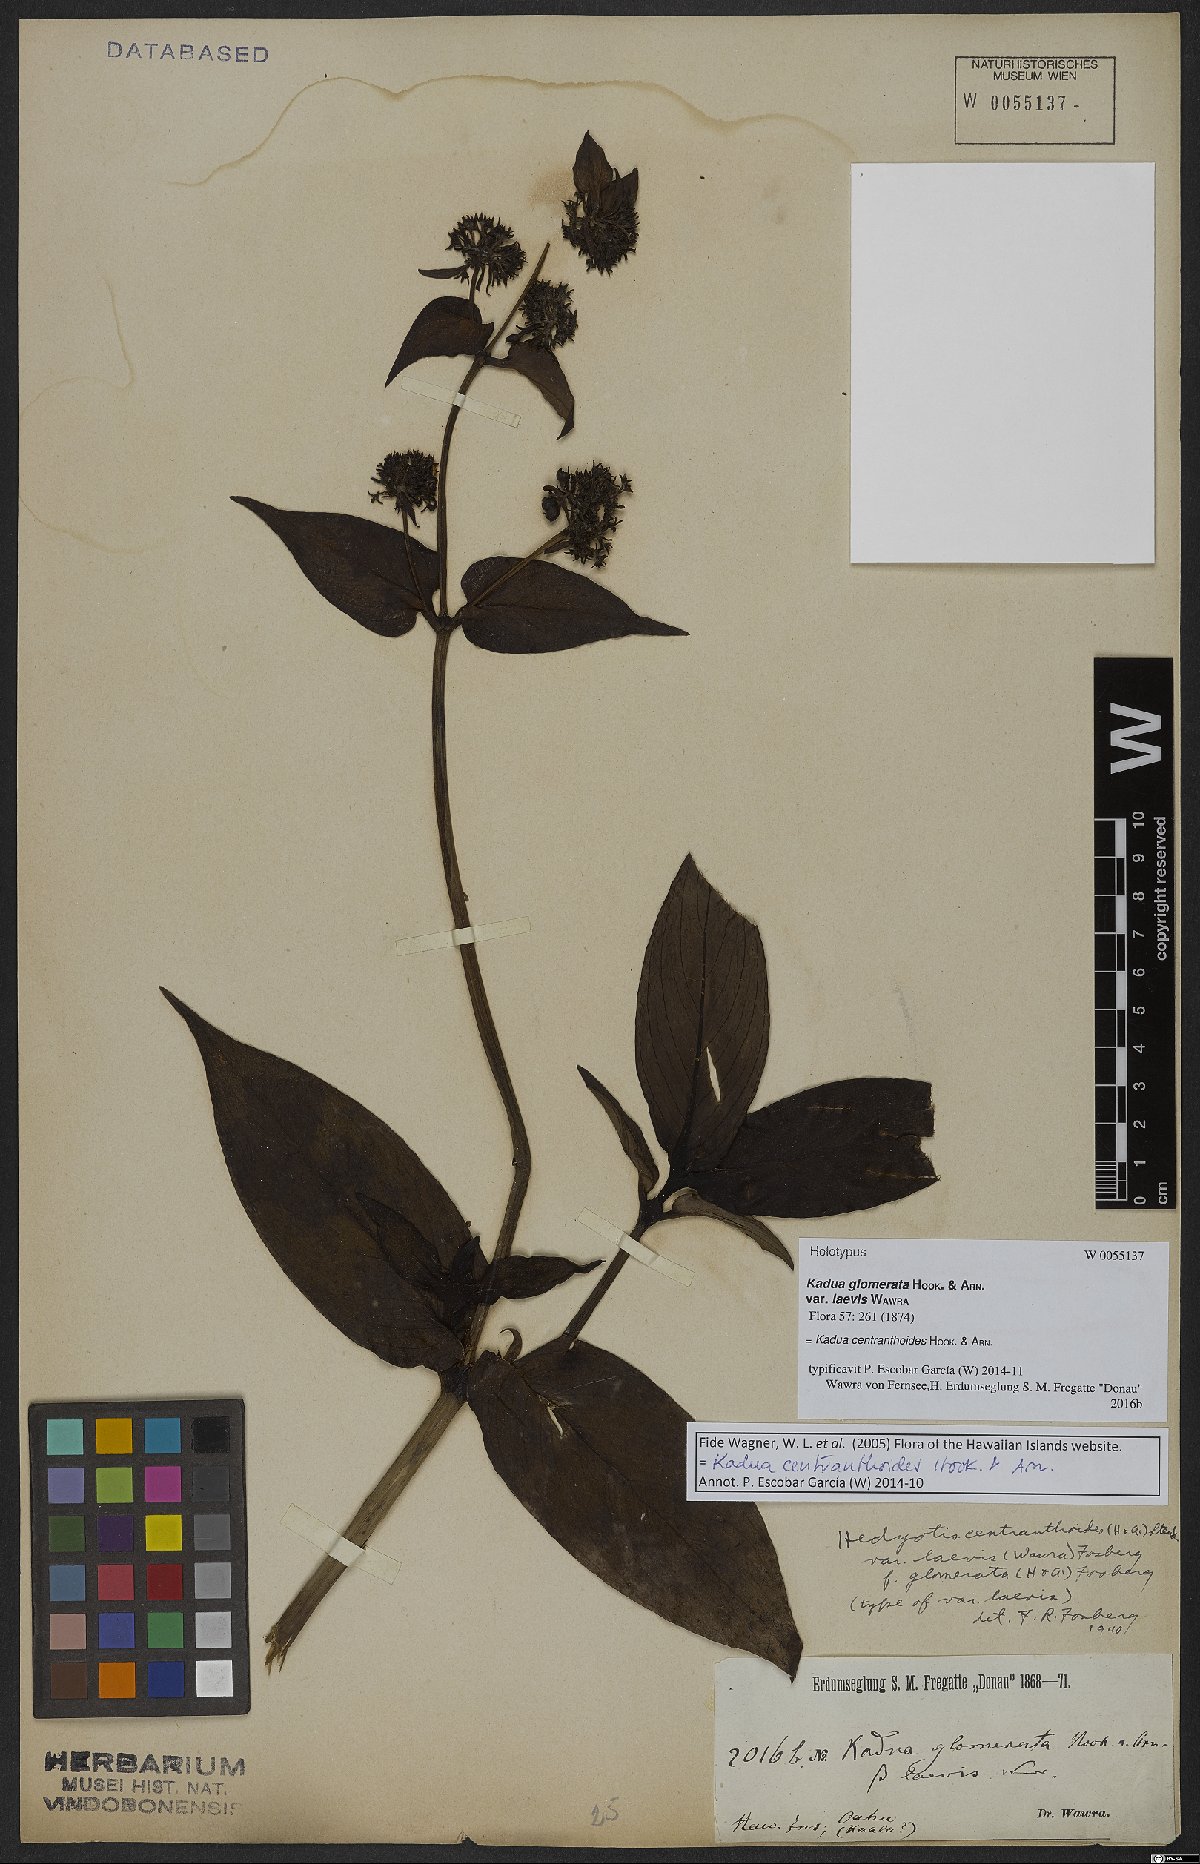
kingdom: Plantae
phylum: Tracheophyta
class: Magnoliopsida
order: Gentianales
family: Rubiaceae
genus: Kadua
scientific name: Kadua centranthoides
